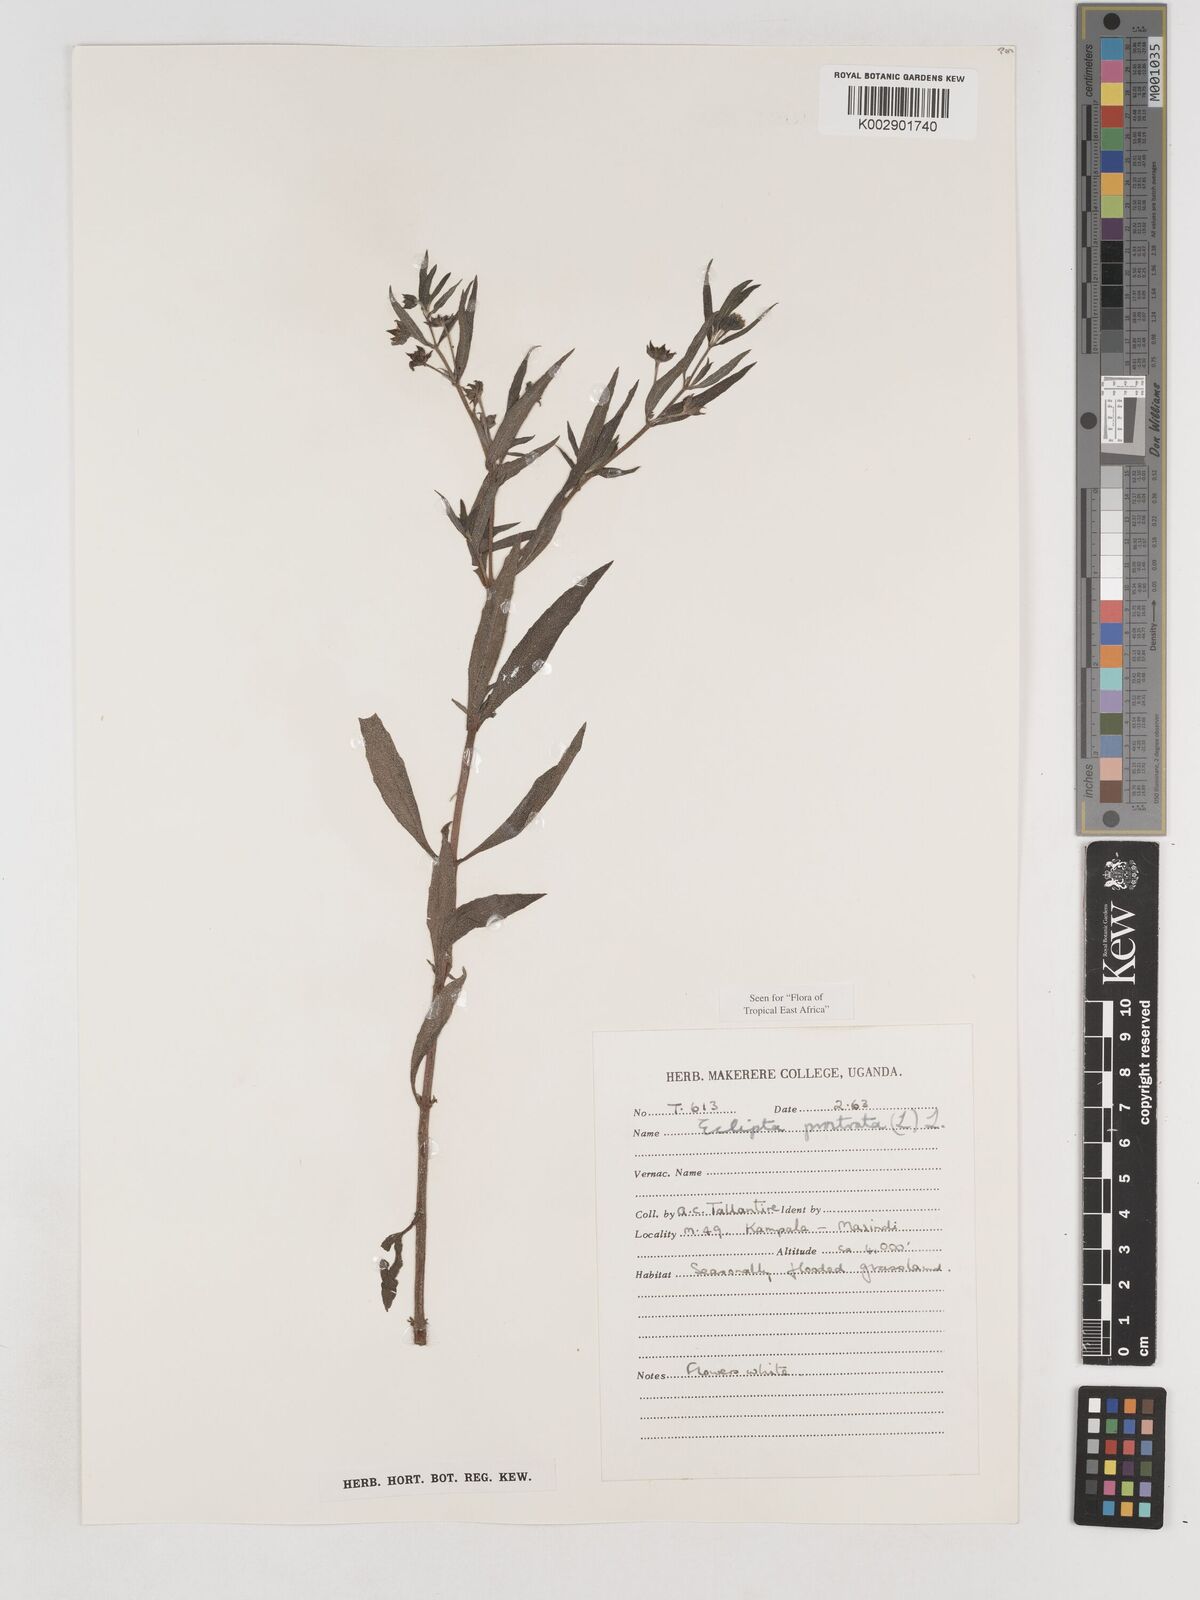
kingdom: Plantae
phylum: Tracheophyta
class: Magnoliopsida
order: Asterales
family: Asteraceae
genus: Eclipta
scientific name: Eclipta prostrata
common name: False daisy
